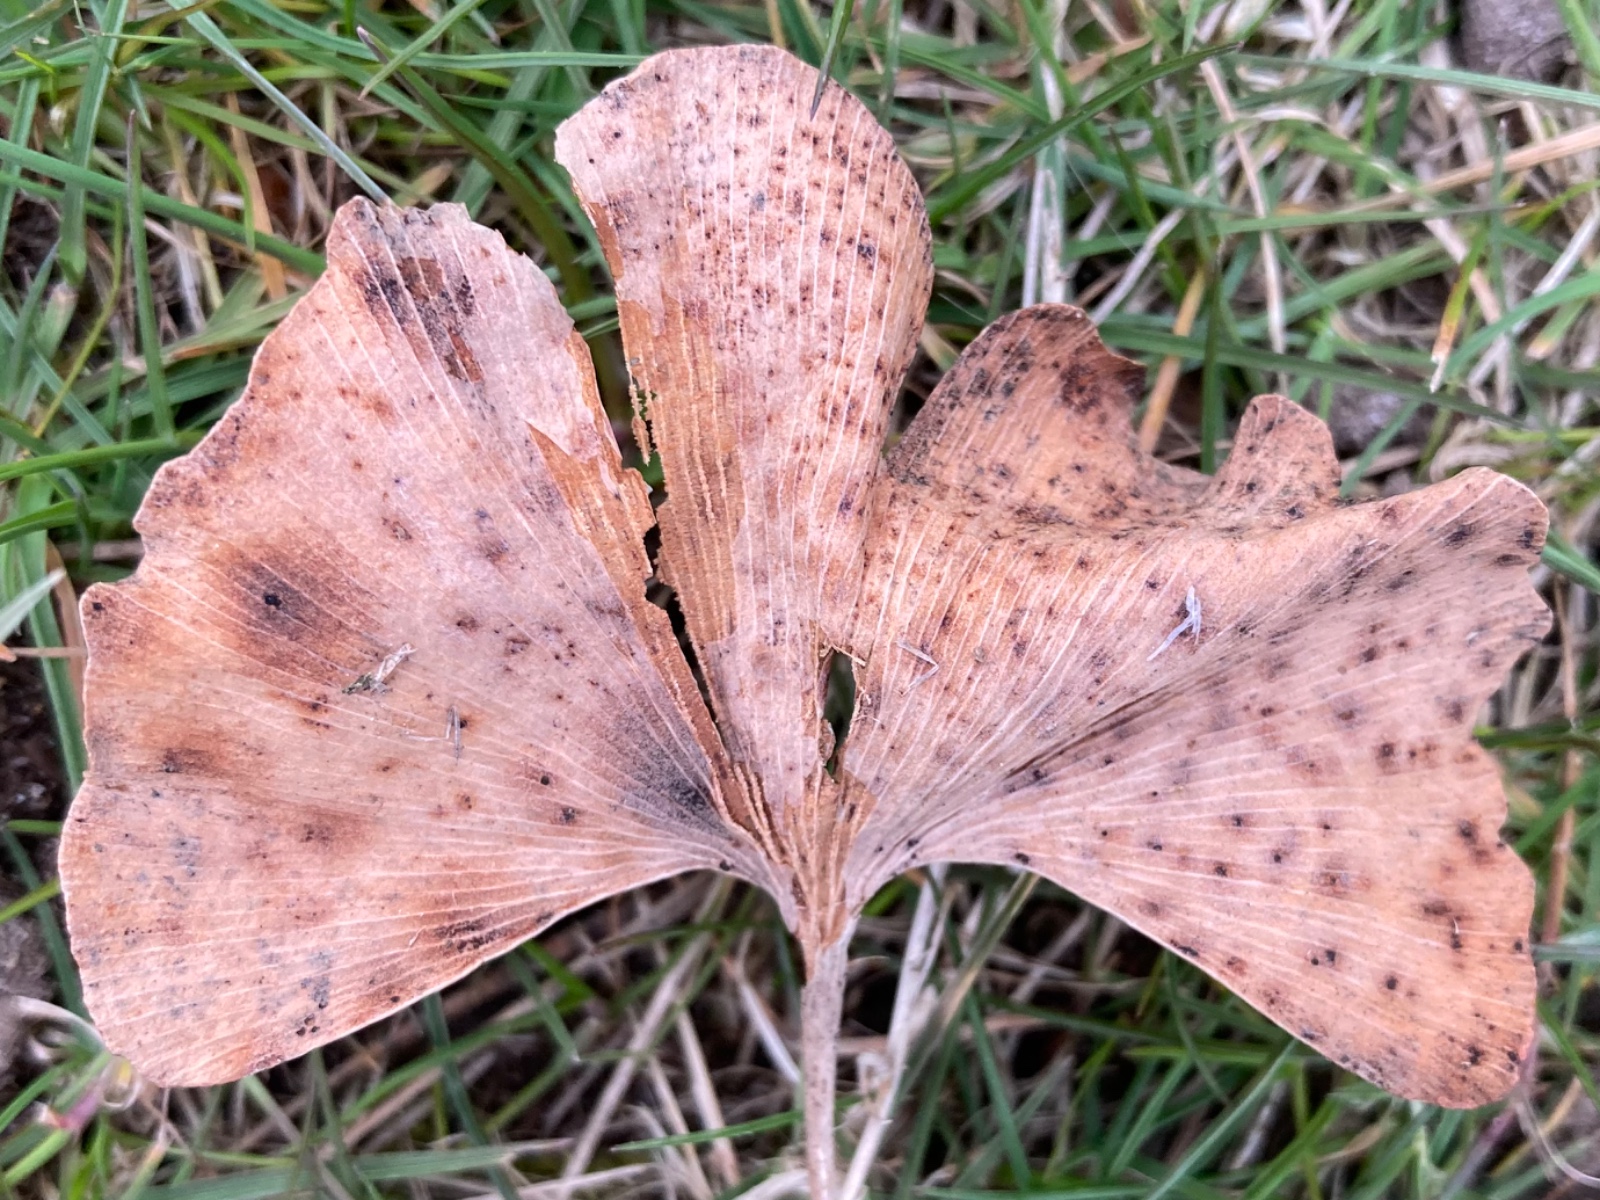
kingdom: Fungi
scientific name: Fungi
